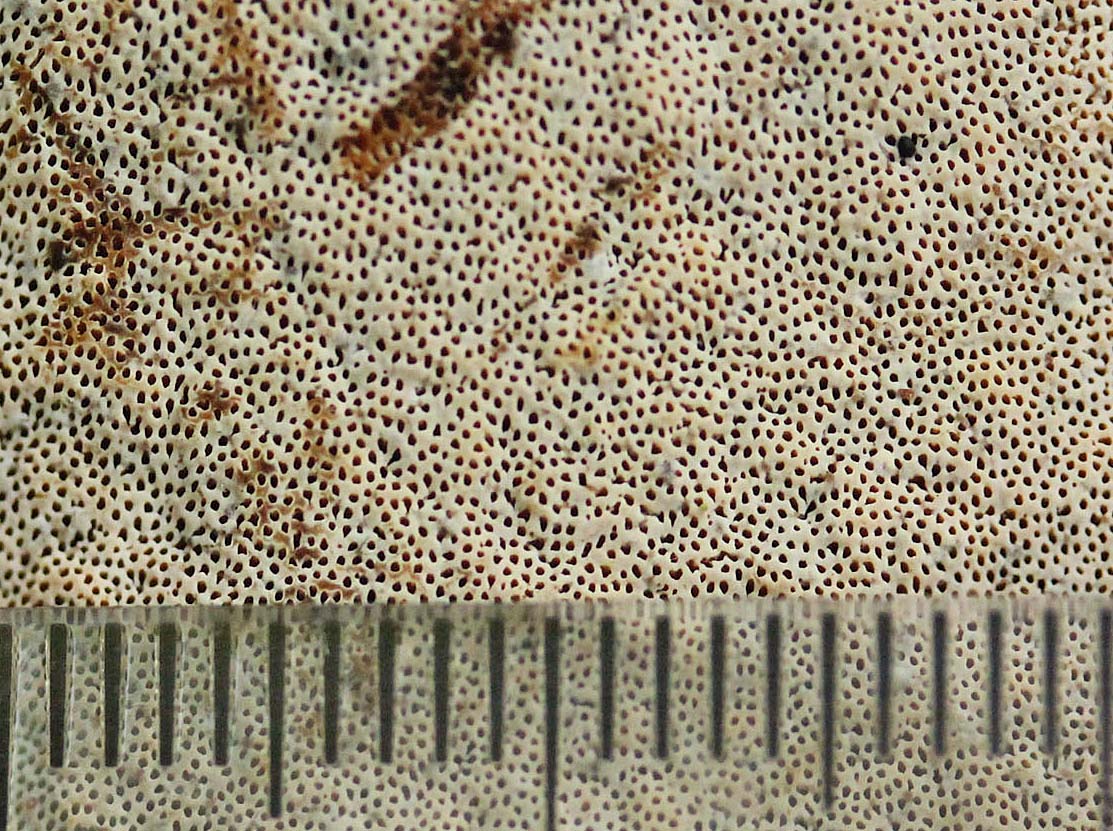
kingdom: Fungi
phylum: Basidiomycota
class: Agaricomycetes
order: Polyporales
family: Polyporaceae
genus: Cerioporus
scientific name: Cerioporus varius
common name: foranderlig stilkporesvamp
